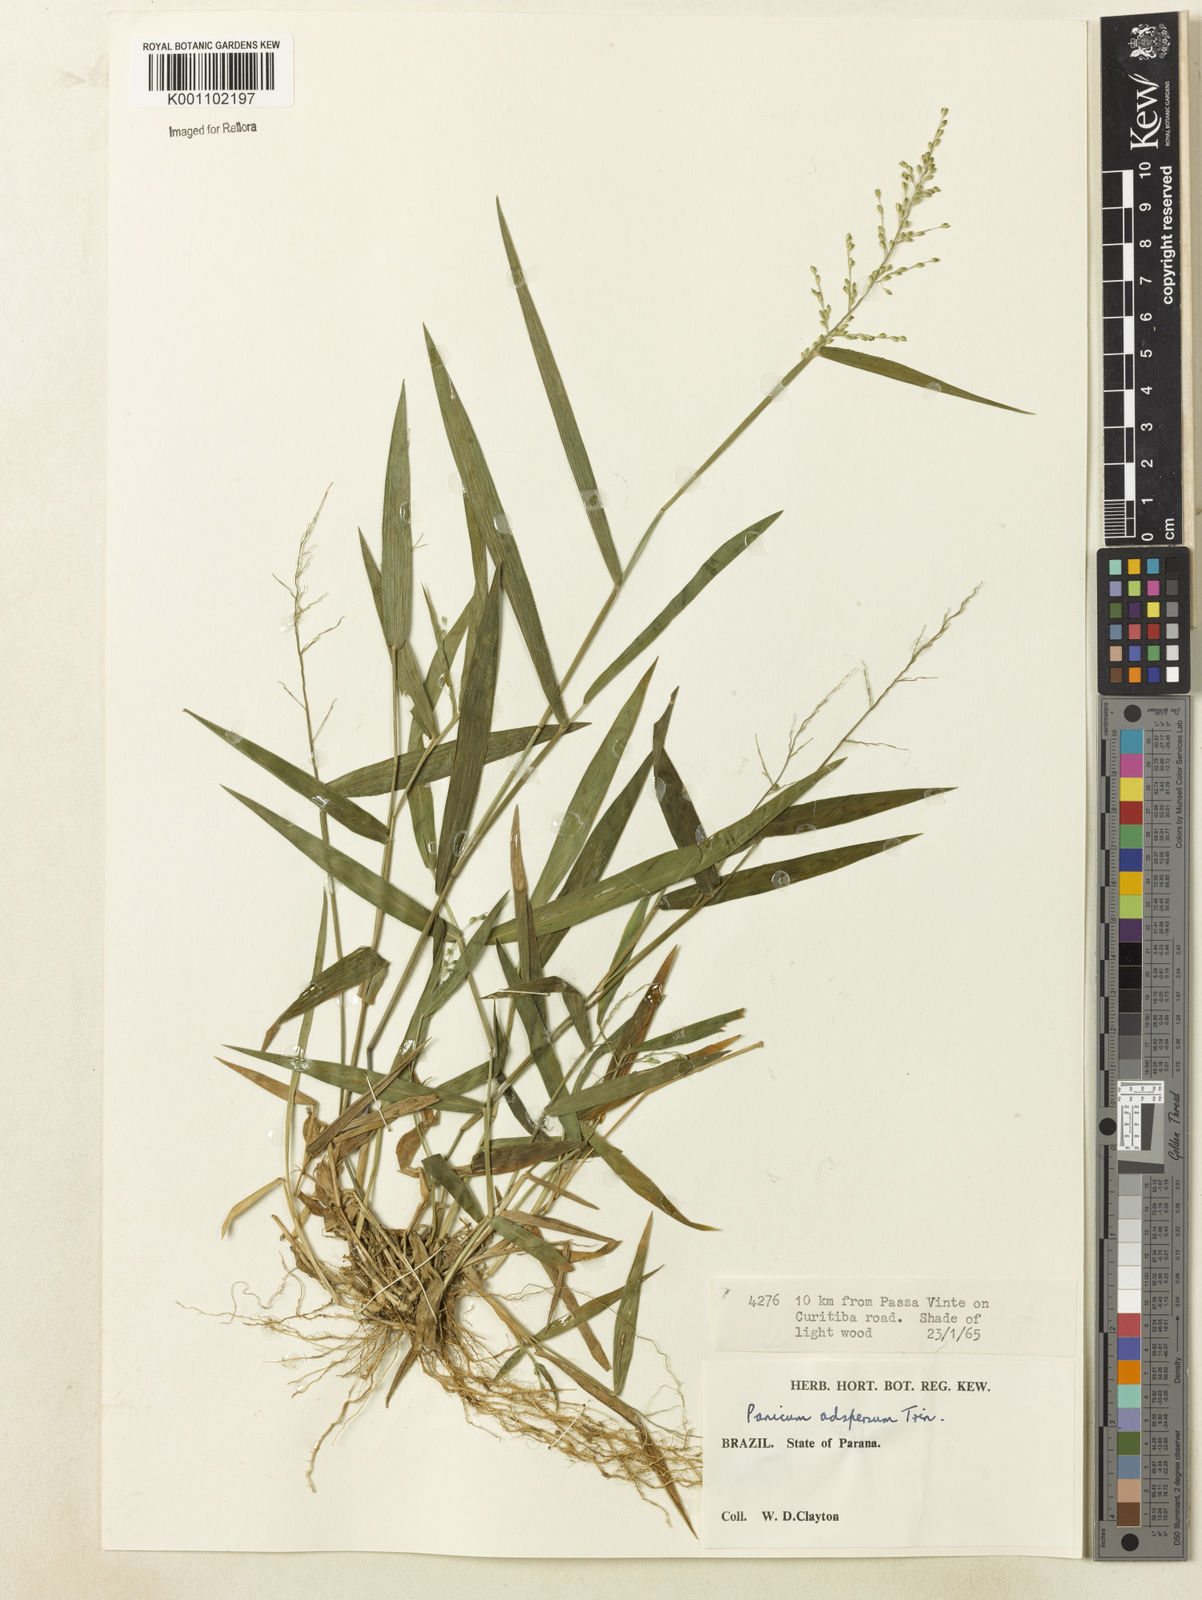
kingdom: Plantae
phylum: Tracheophyta
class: Liliopsida
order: Poales
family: Poaceae
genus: Dichanthelium
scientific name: Dichanthelium sabulorum
